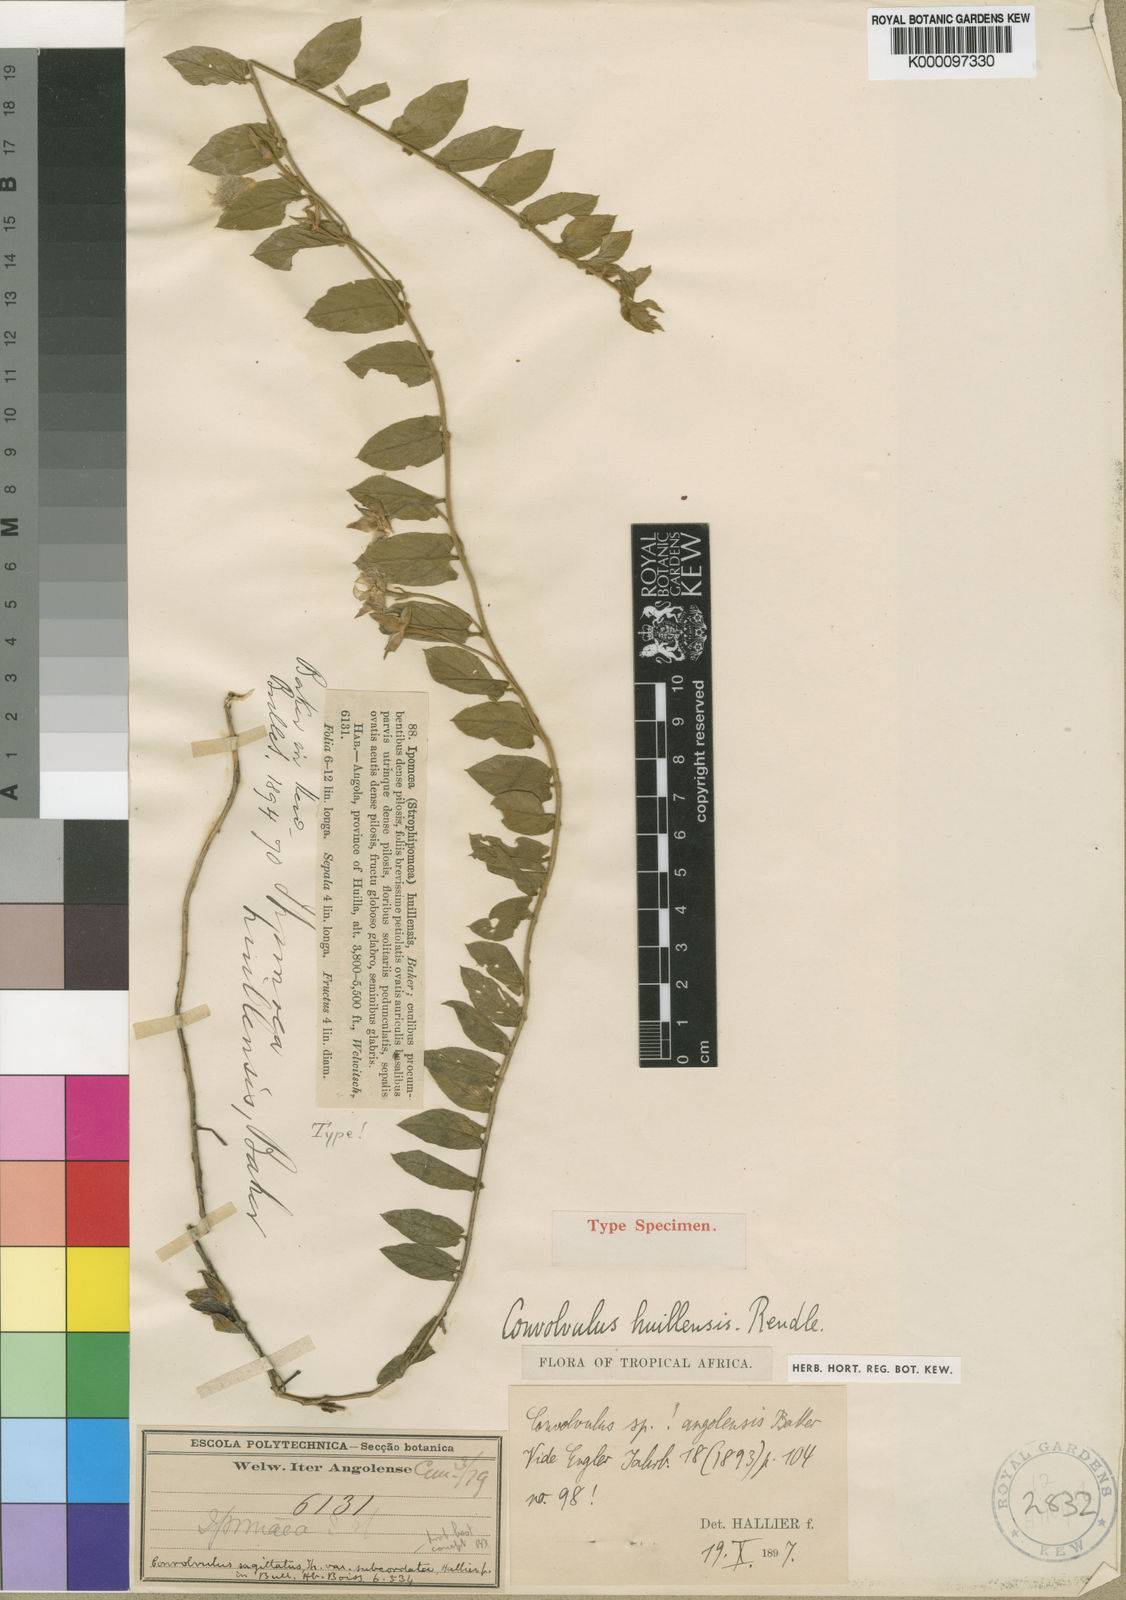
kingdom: Plantae
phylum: Tracheophyta
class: Magnoliopsida
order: Solanales
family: Convolvulaceae
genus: Convolvulus
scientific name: Convolvulus sagittatus
